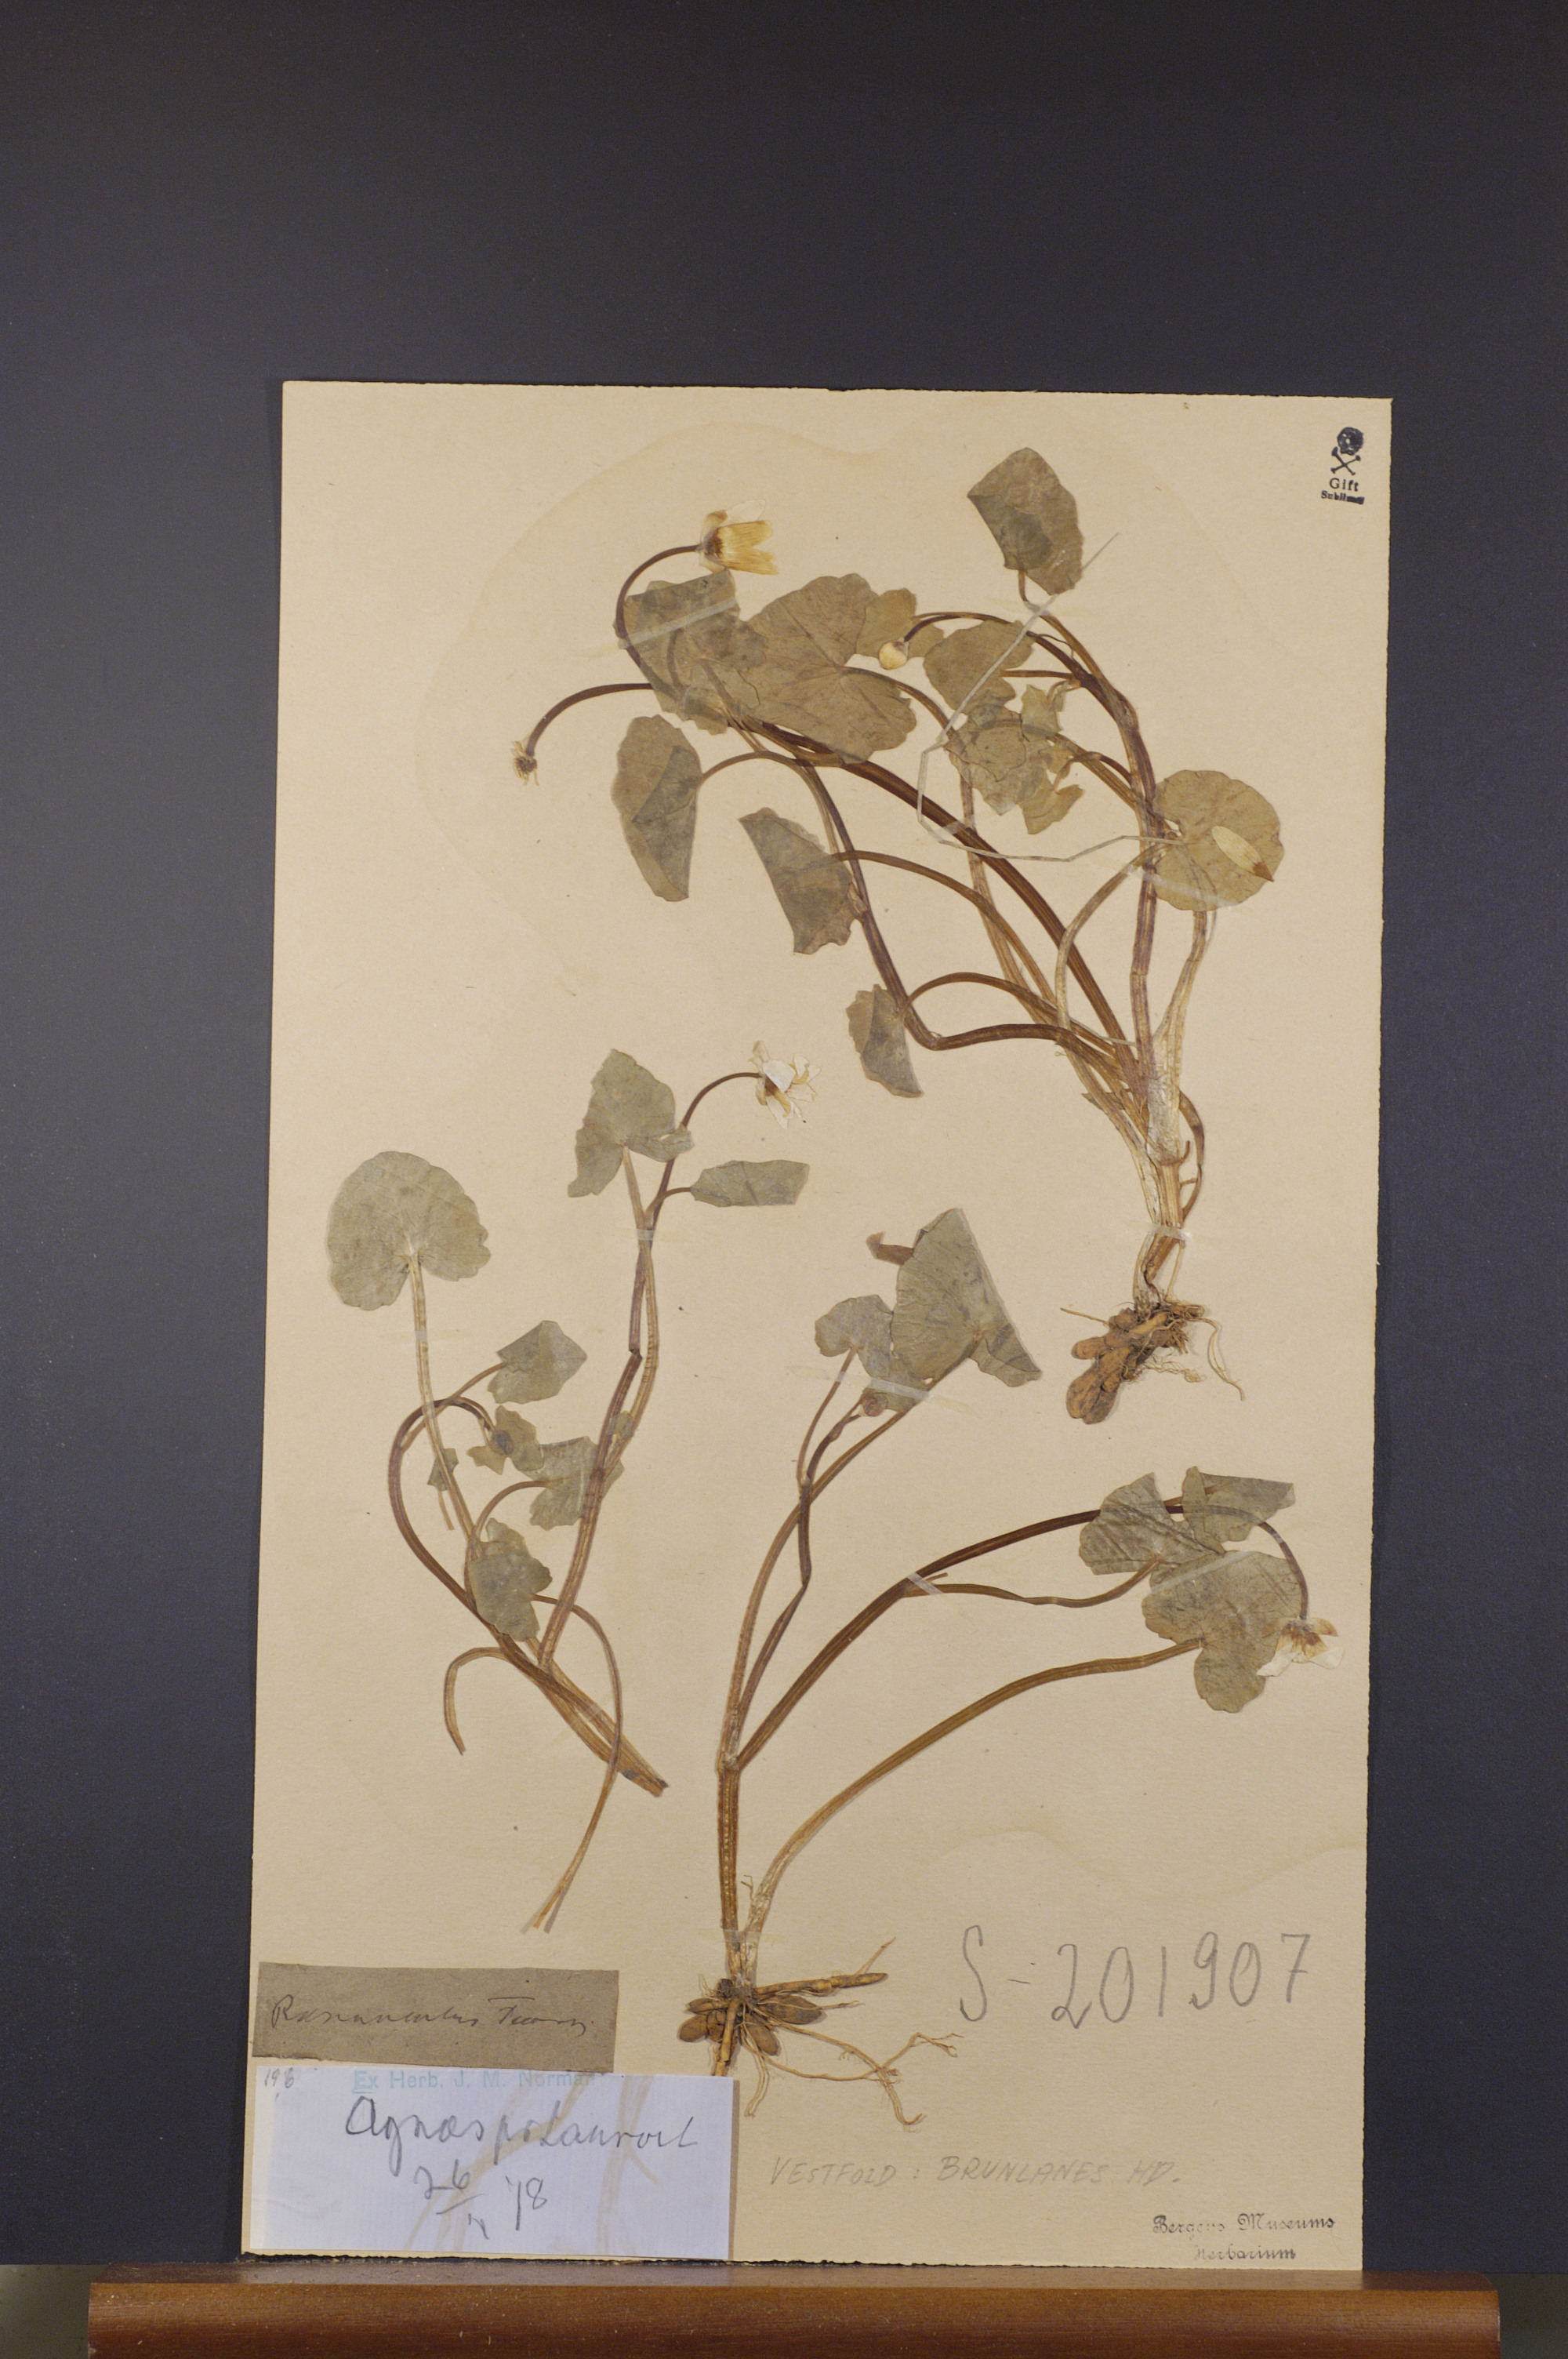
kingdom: Plantae
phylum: Tracheophyta
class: Magnoliopsida
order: Ranunculales
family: Ranunculaceae
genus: Ficaria
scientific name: Ficaria verna
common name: Lesser celandine
